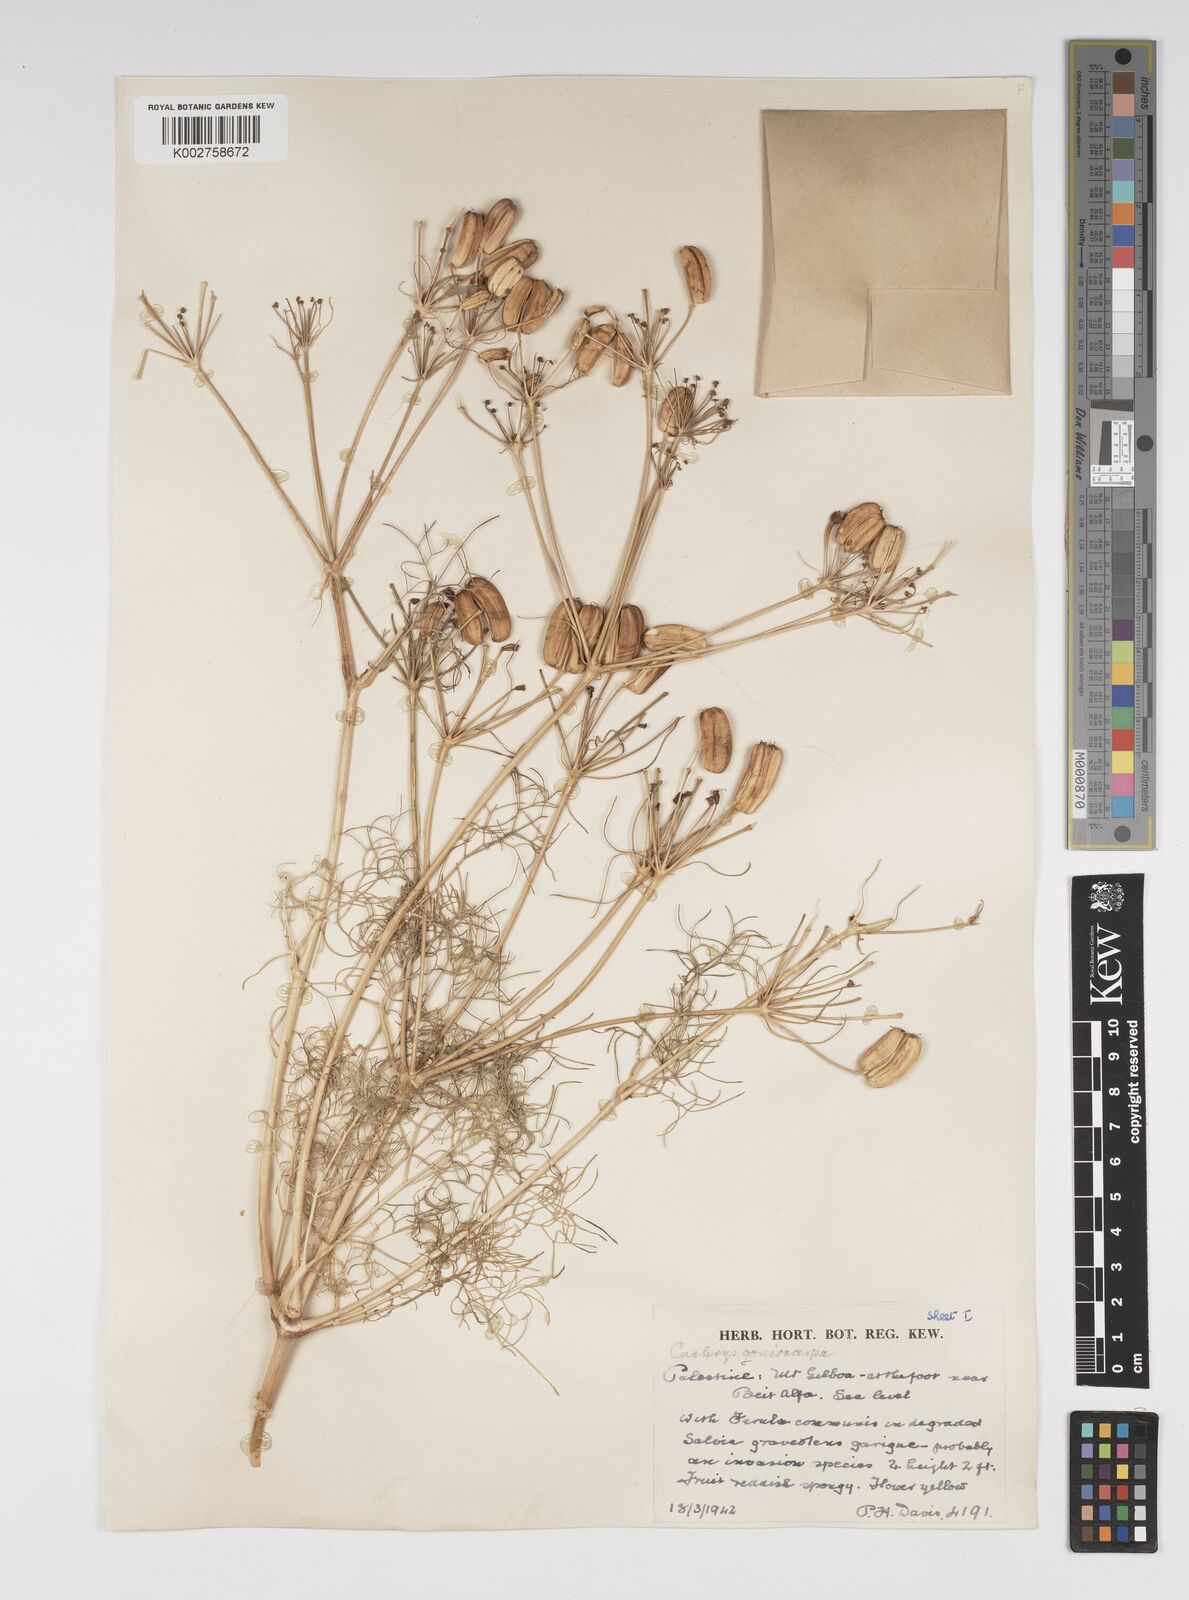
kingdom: Plantae
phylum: Tracheophyta
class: Magnoliopsida
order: Apiales
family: Apiaceae
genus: Prangos
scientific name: Prangos ferulacea
